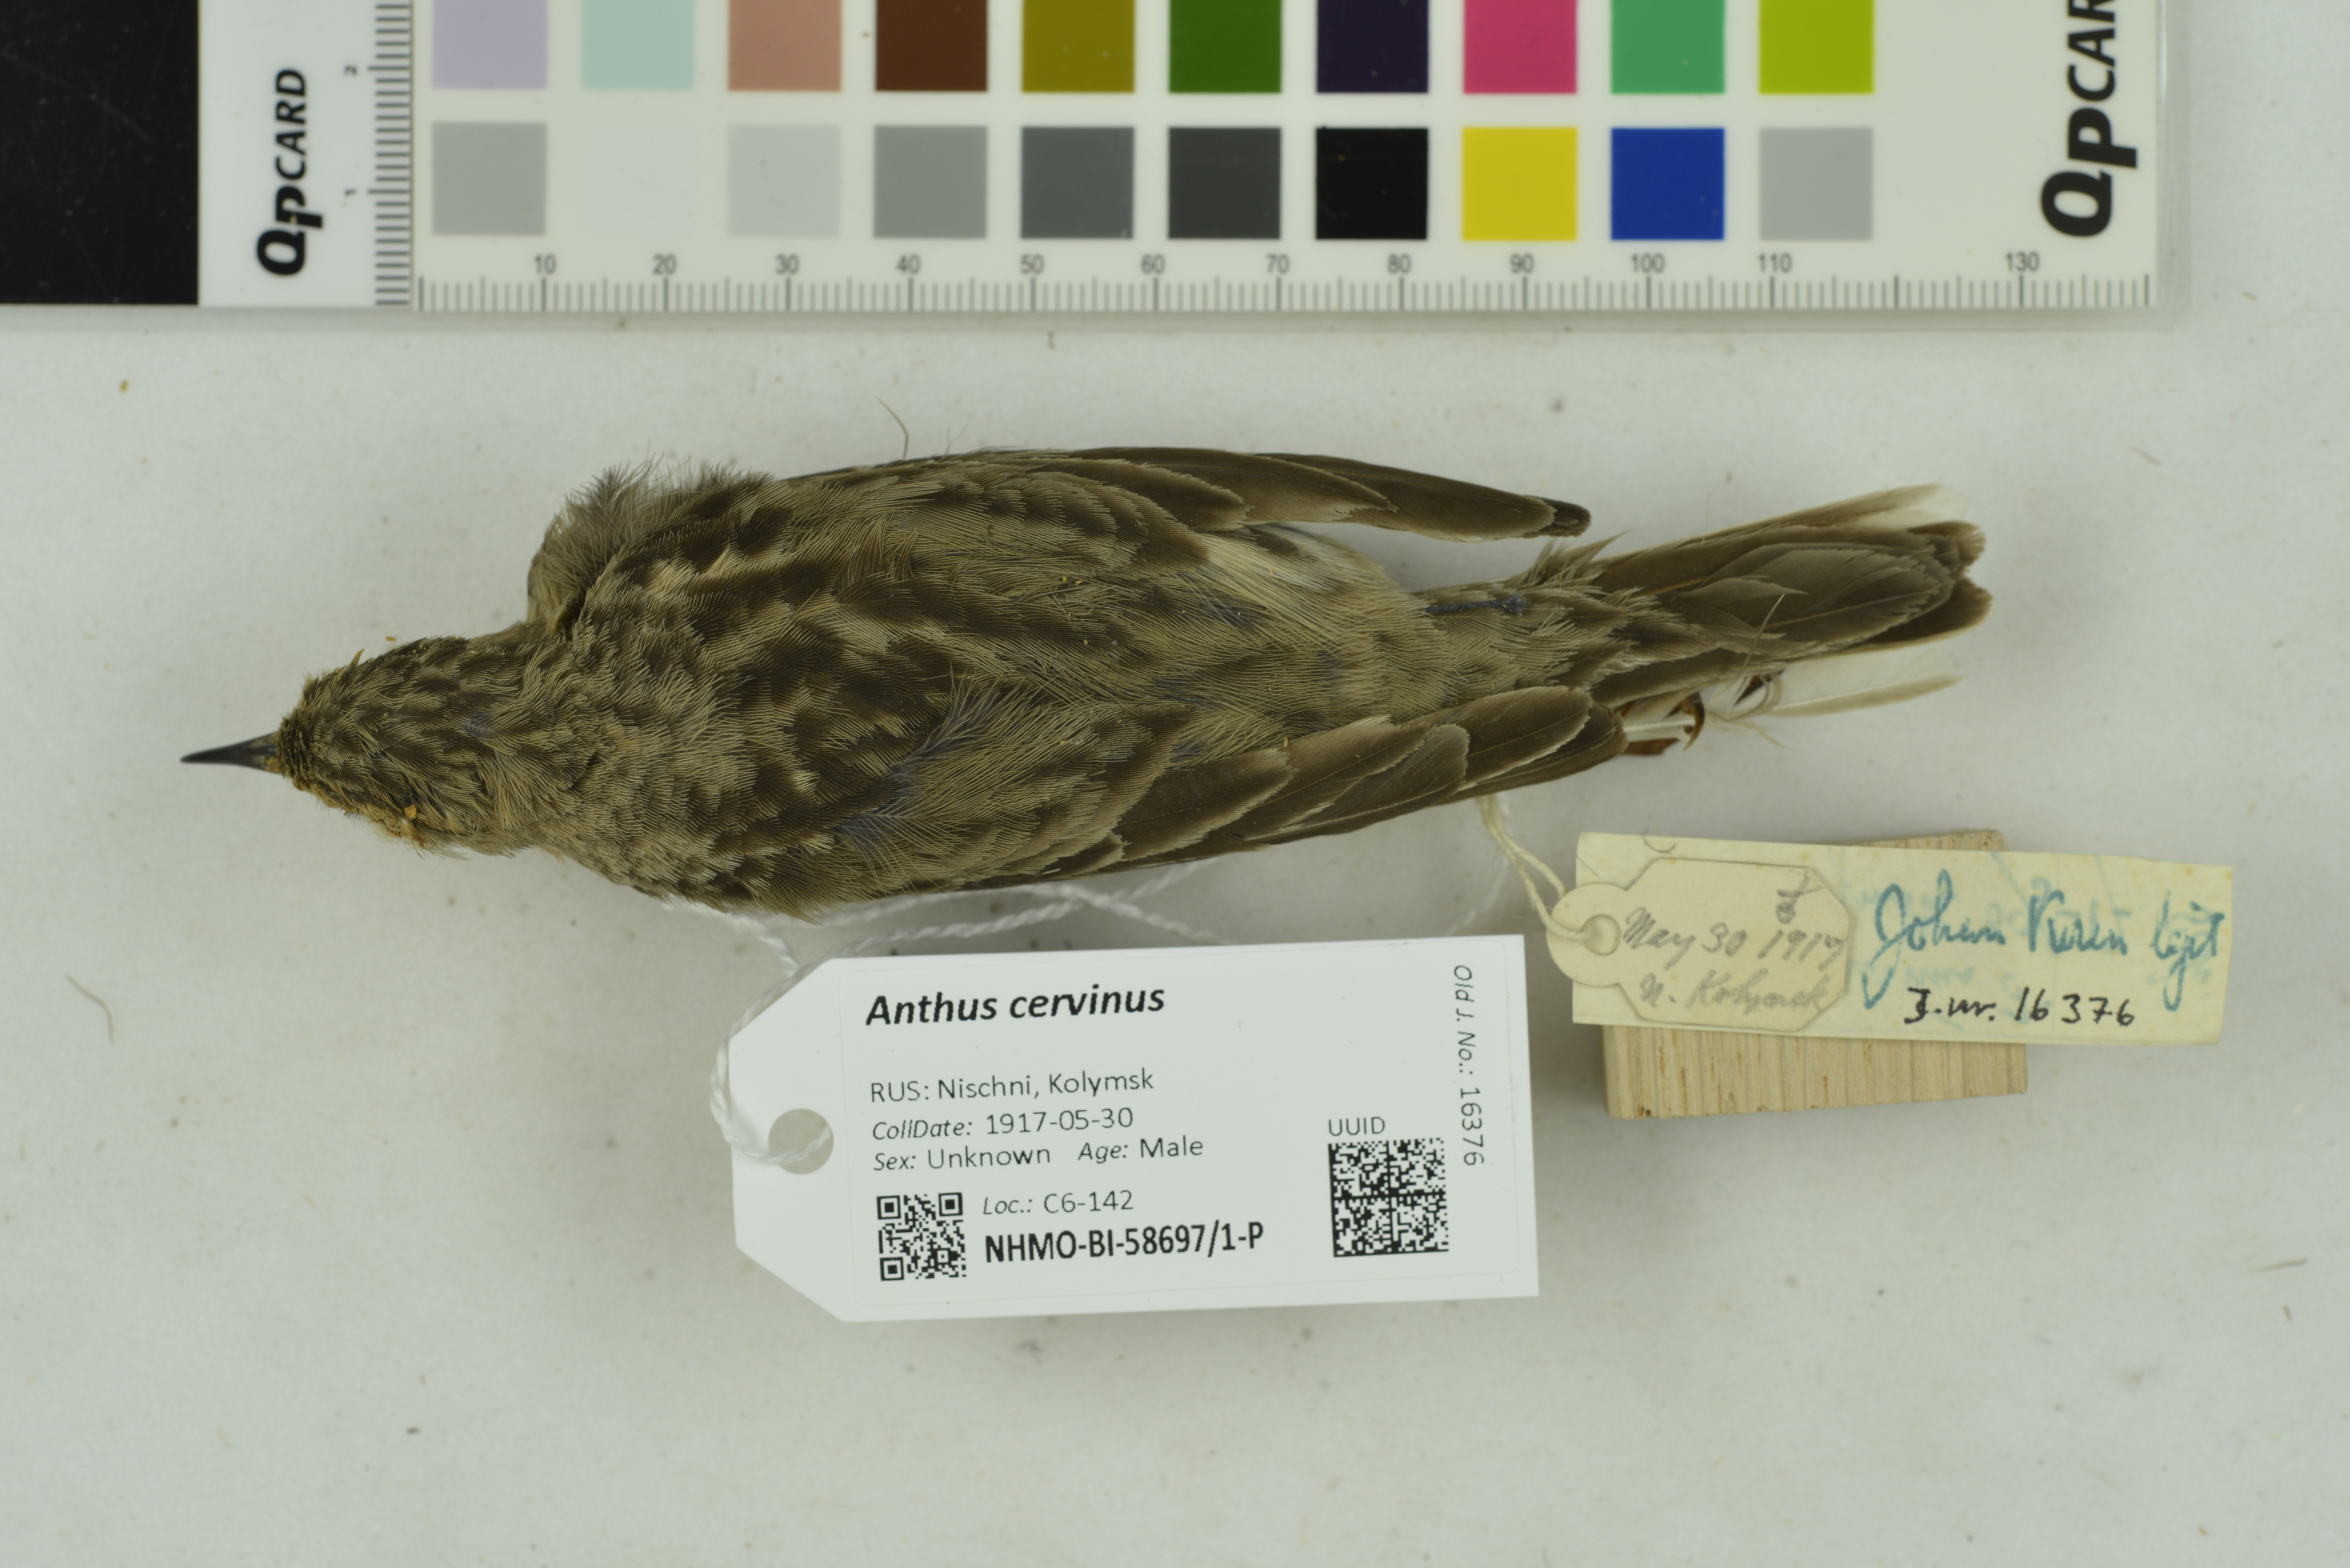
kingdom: Animalia
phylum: Chordata
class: Aves
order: Passeriformes
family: Motacillidae
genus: Anthus
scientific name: Anthus cervinus
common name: Red-throated pipit
